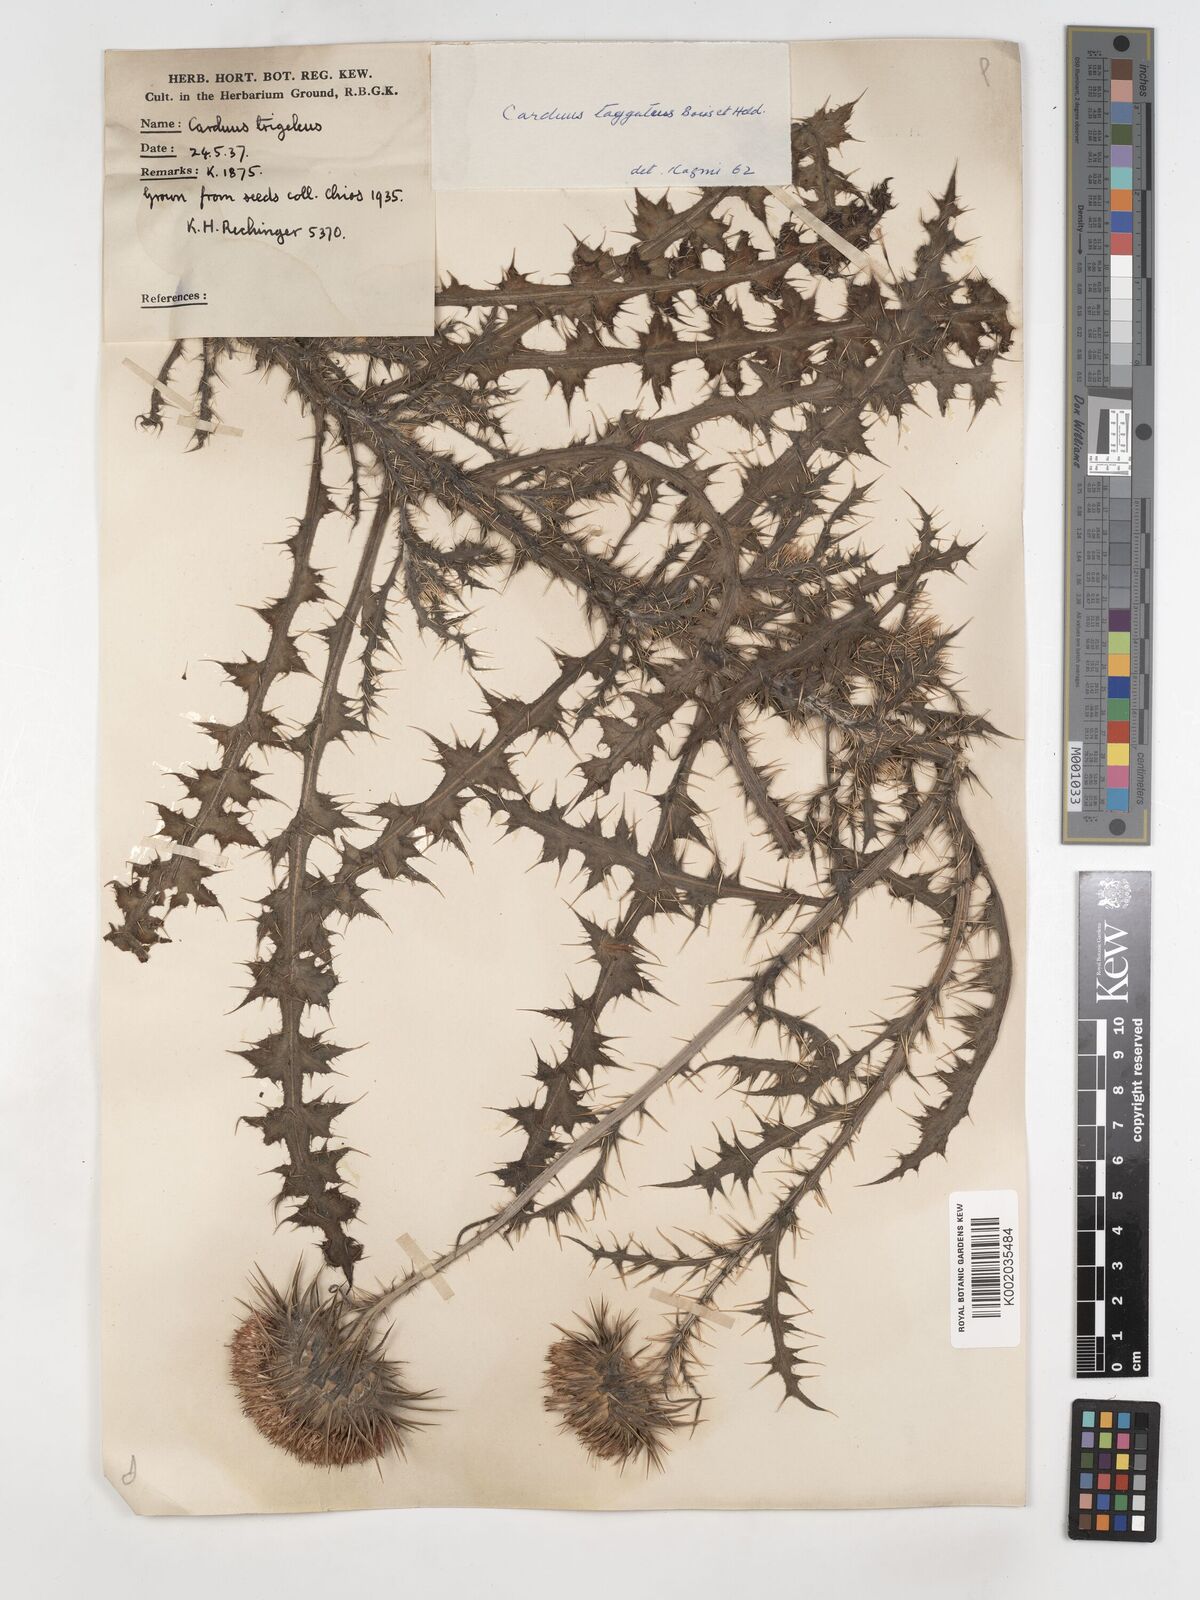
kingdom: Plantae
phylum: Tracheophyta
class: Magnoliopsida
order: Asterales
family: Asteraceae
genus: Carduus
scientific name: Carduus nutans
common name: Musk thistle
